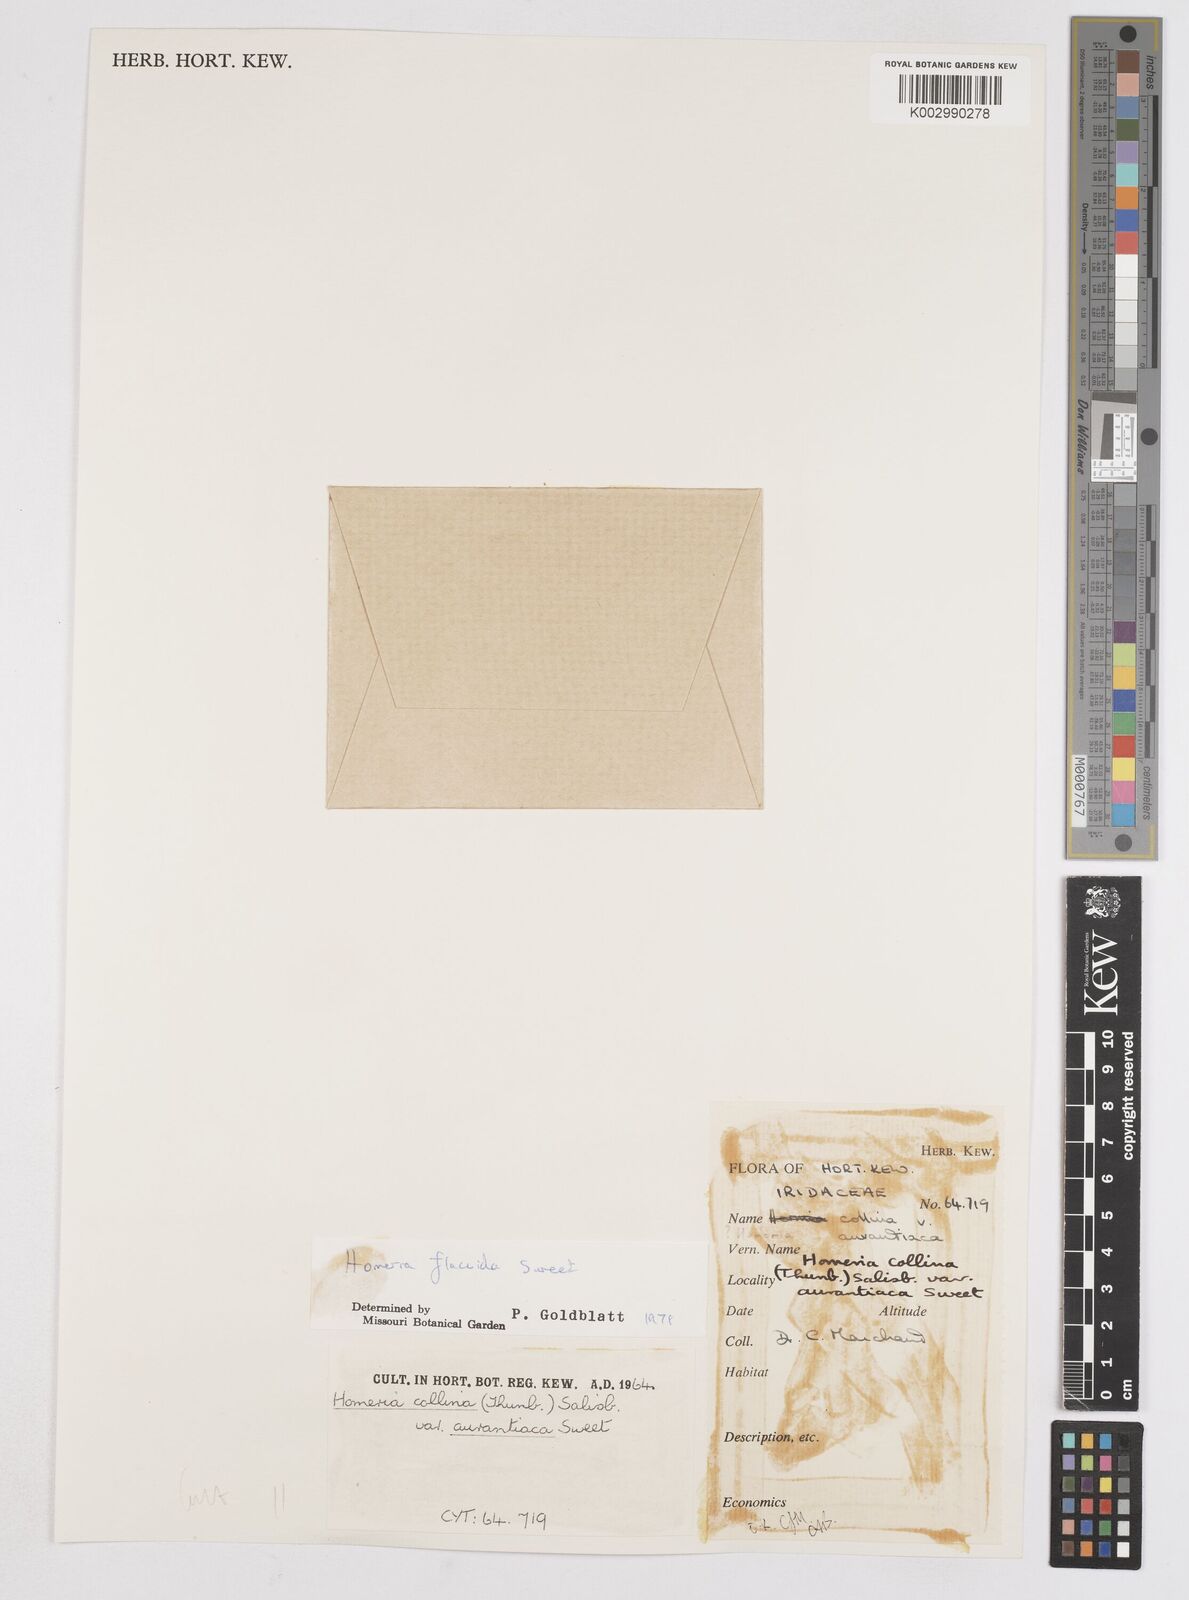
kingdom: Plantae
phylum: Tracheophyta
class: Liliopsida
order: Asparagales
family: Iridaceae
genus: Moraea
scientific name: Moraea flaccida
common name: One-leaf cape-tulip
